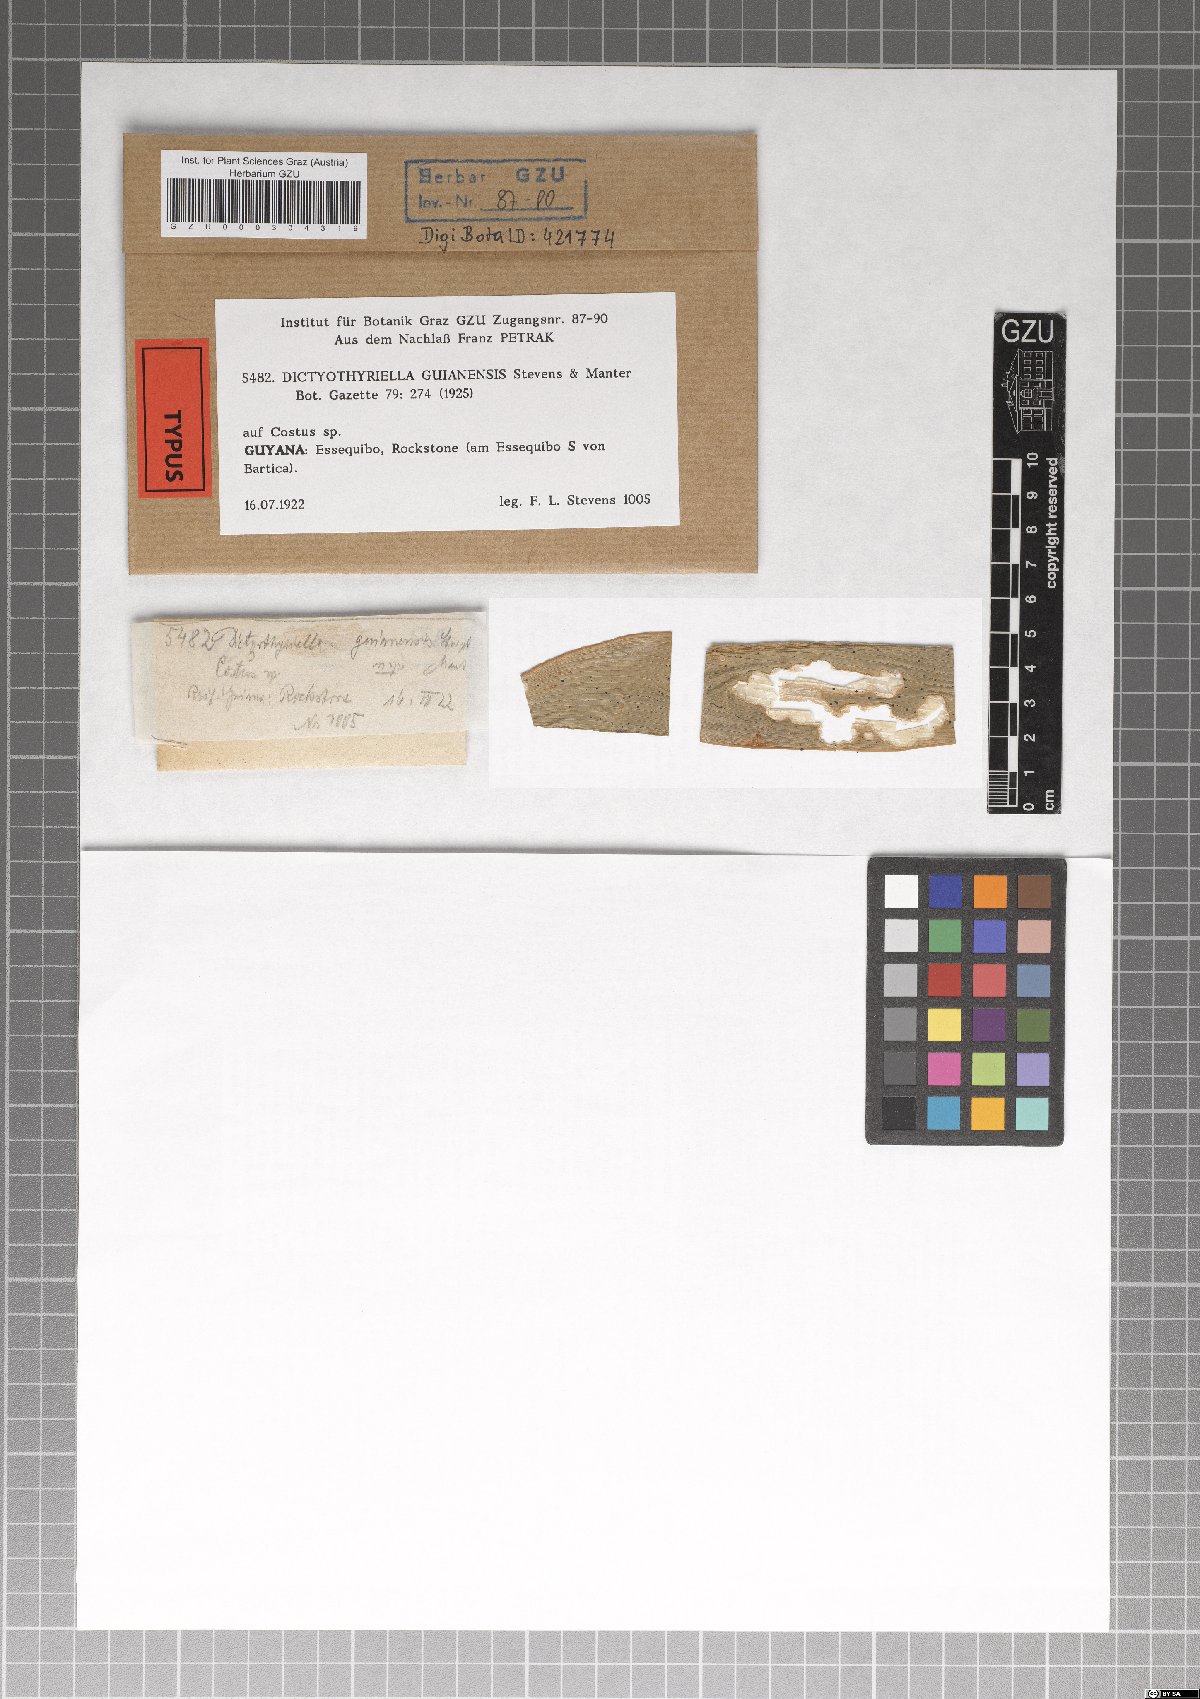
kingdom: Fungi
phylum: Ascomycota
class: Dothideomycetes
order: Microthyriales
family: Micropeltidaceae
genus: Dictyothyriella
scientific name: Dictyothyriella guianensis
